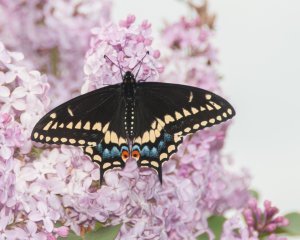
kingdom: Animalia
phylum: Arthropoda
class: Insecta
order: Lepidoptera
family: Papilionidae
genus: Papilio
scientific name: Papilio polyxenes
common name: Black Swallowtail
